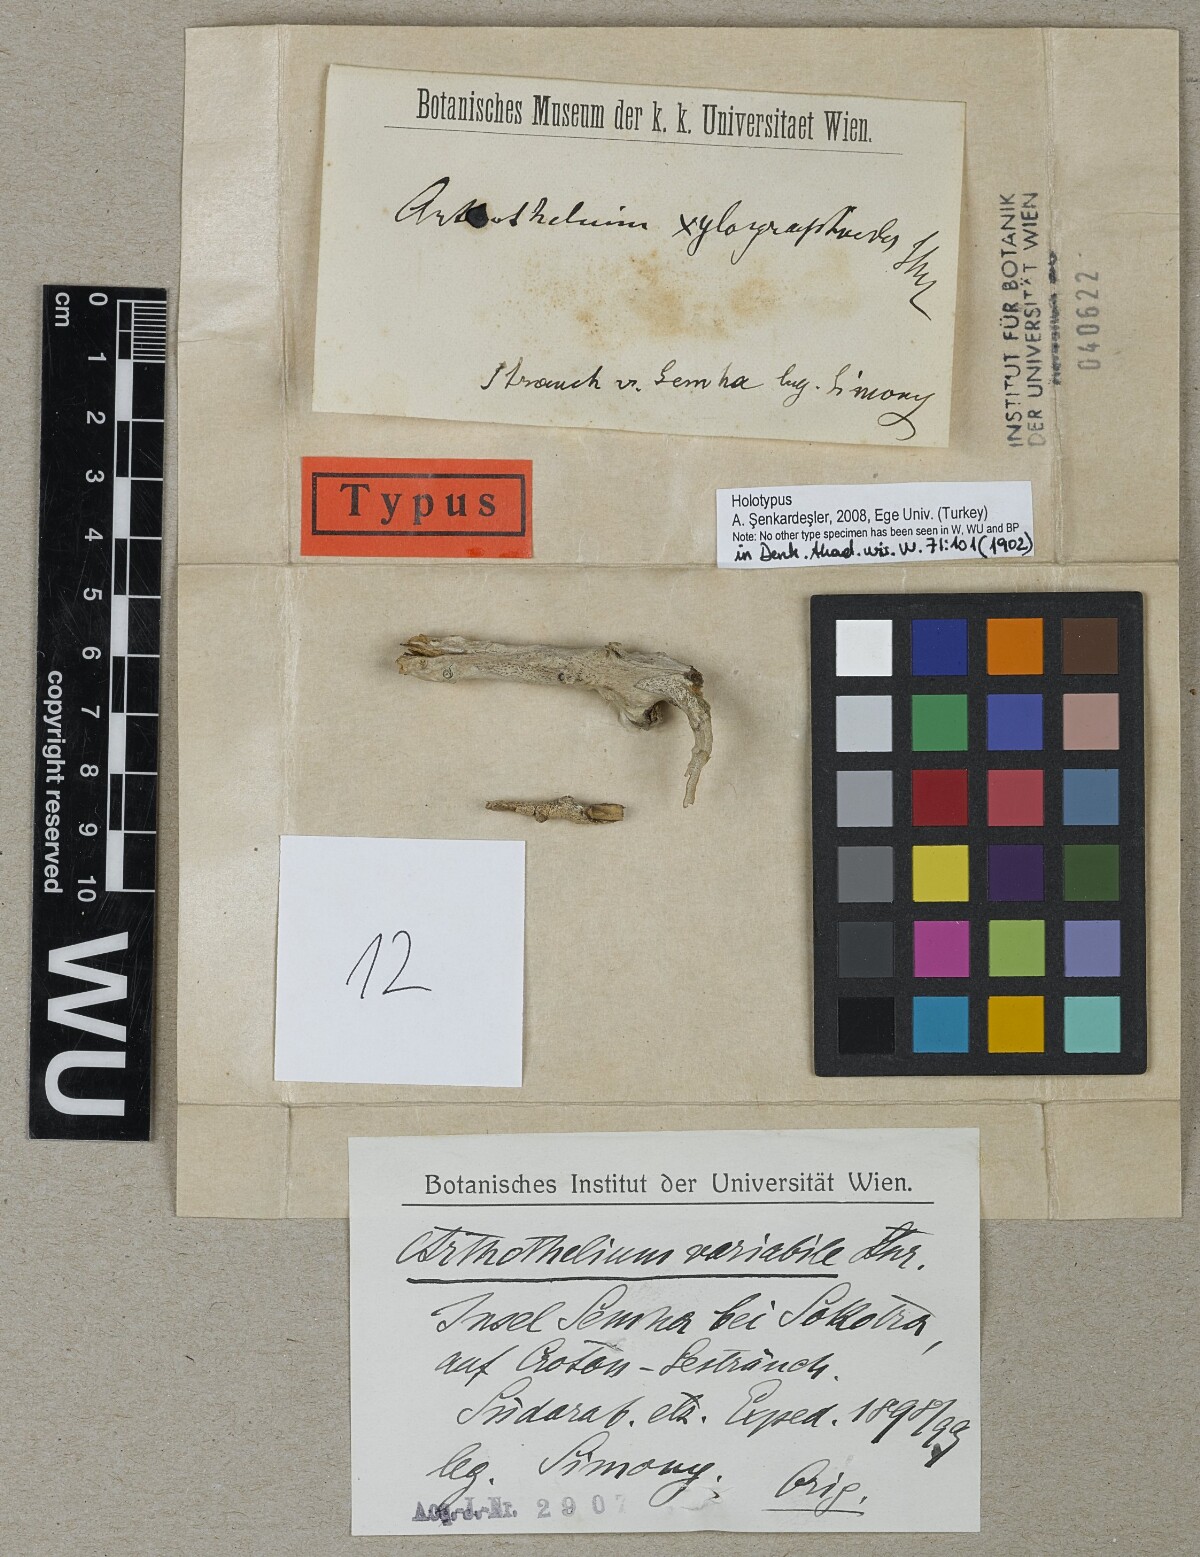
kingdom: Fungi
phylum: Ascomycota
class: Arthoniomycetes
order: Arthoniales
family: Arthoniaceae
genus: Arthothelium
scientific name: Arthothelium
